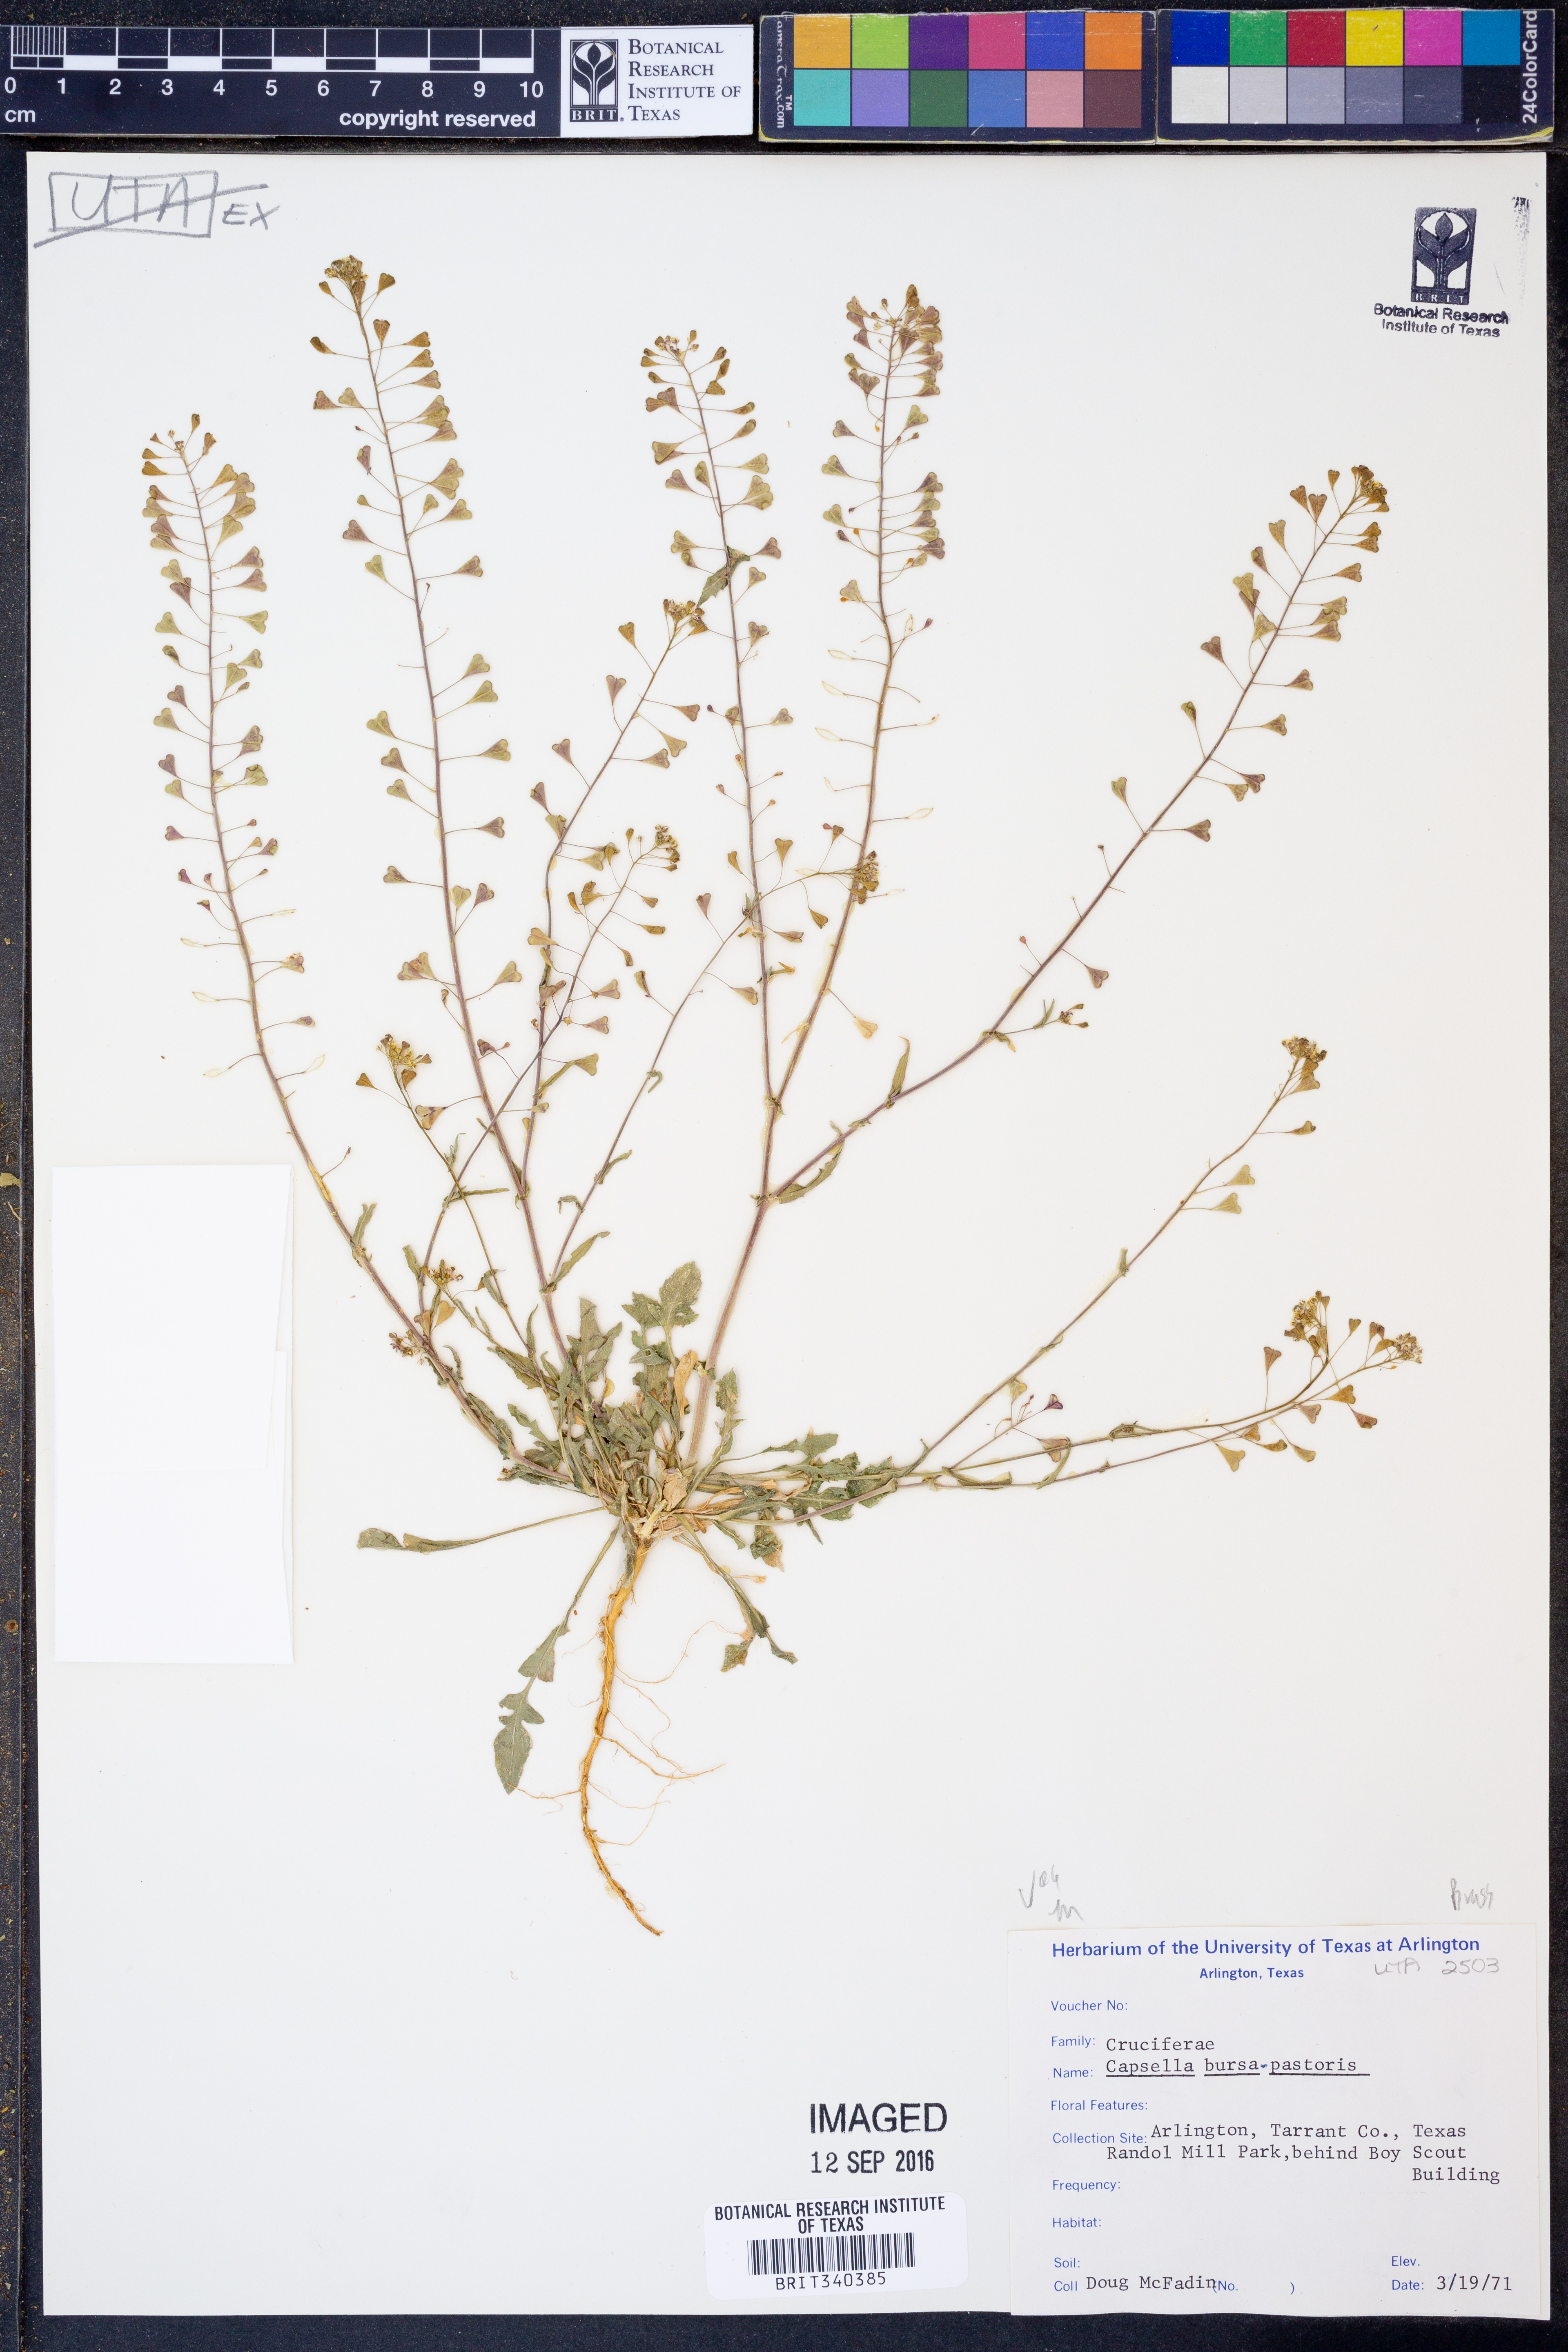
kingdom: Plantae
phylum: Tracheophyta
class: Magnoliopsida
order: Brassicales
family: Brassicaceae
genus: Capsella
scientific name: Capsella bursa-pastoris
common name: Shepherd's purse
